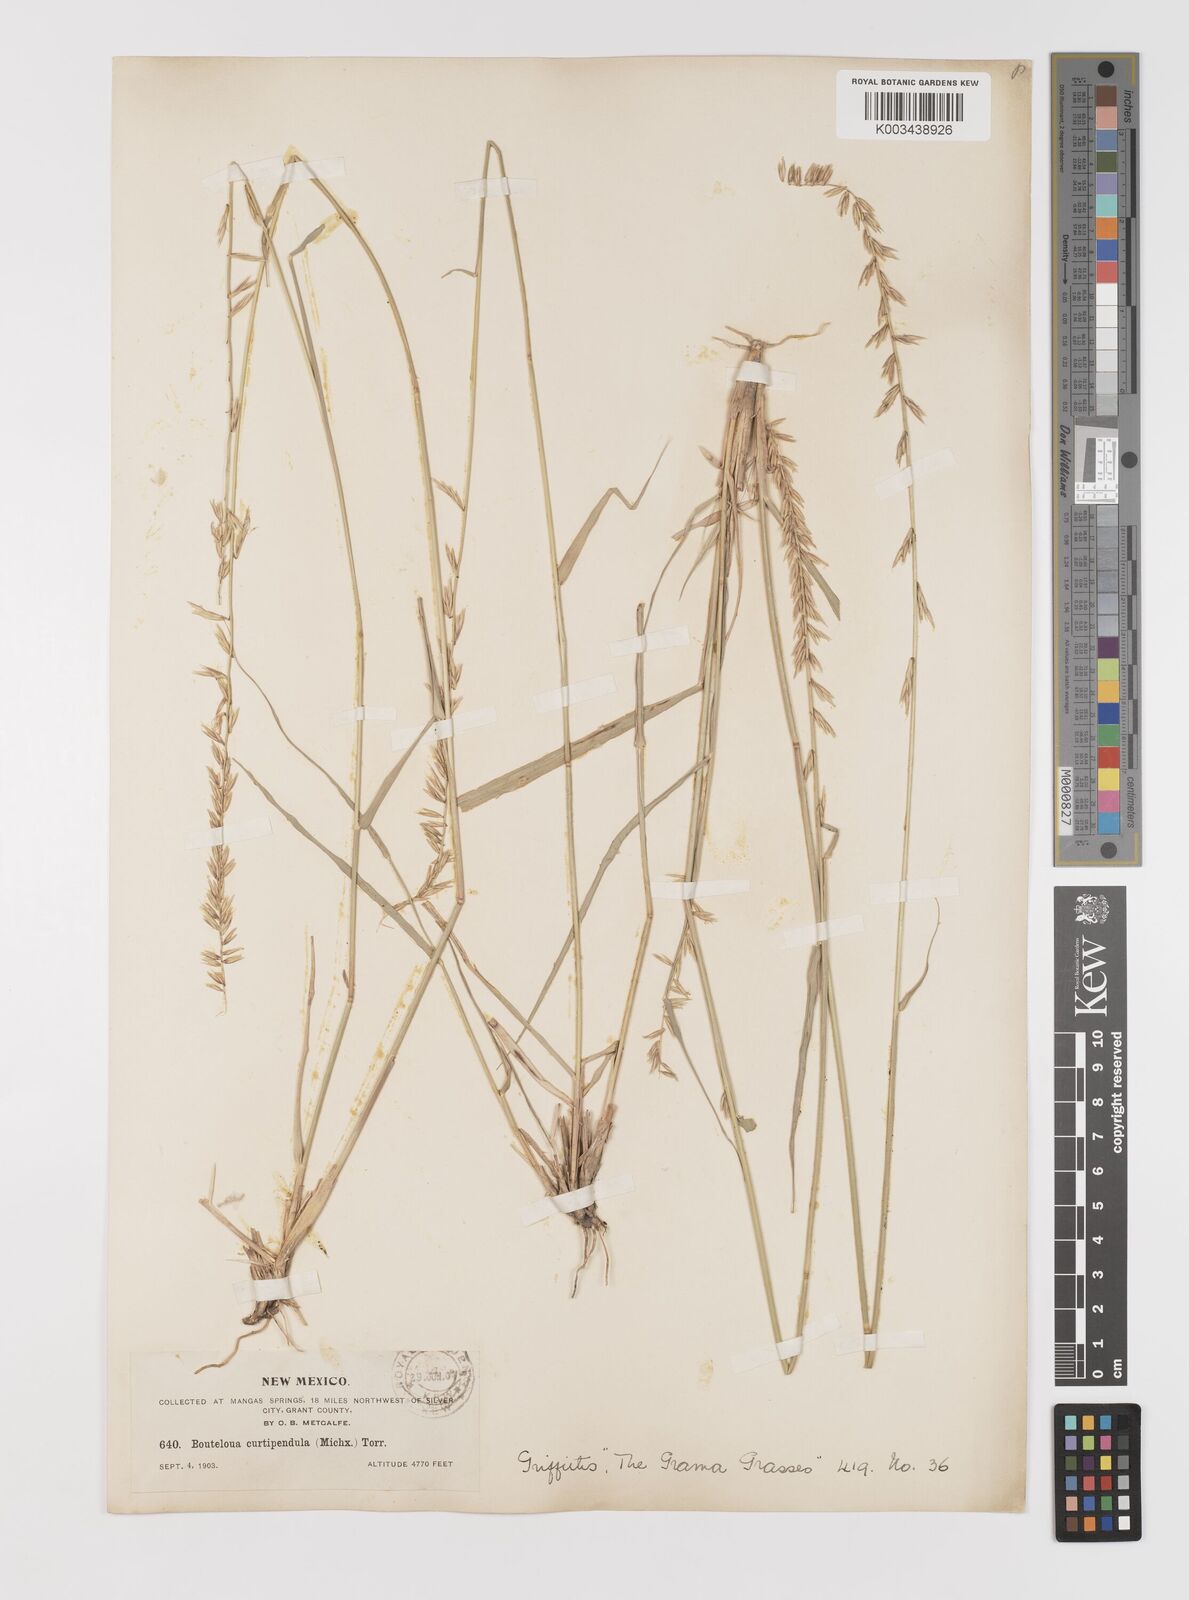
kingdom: Plantae
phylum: Tracheophyta
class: Liliopsida
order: Poales
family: Poaceae
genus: Bouteloua
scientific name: Bouteloua curtipendula
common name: Side-oats grama
